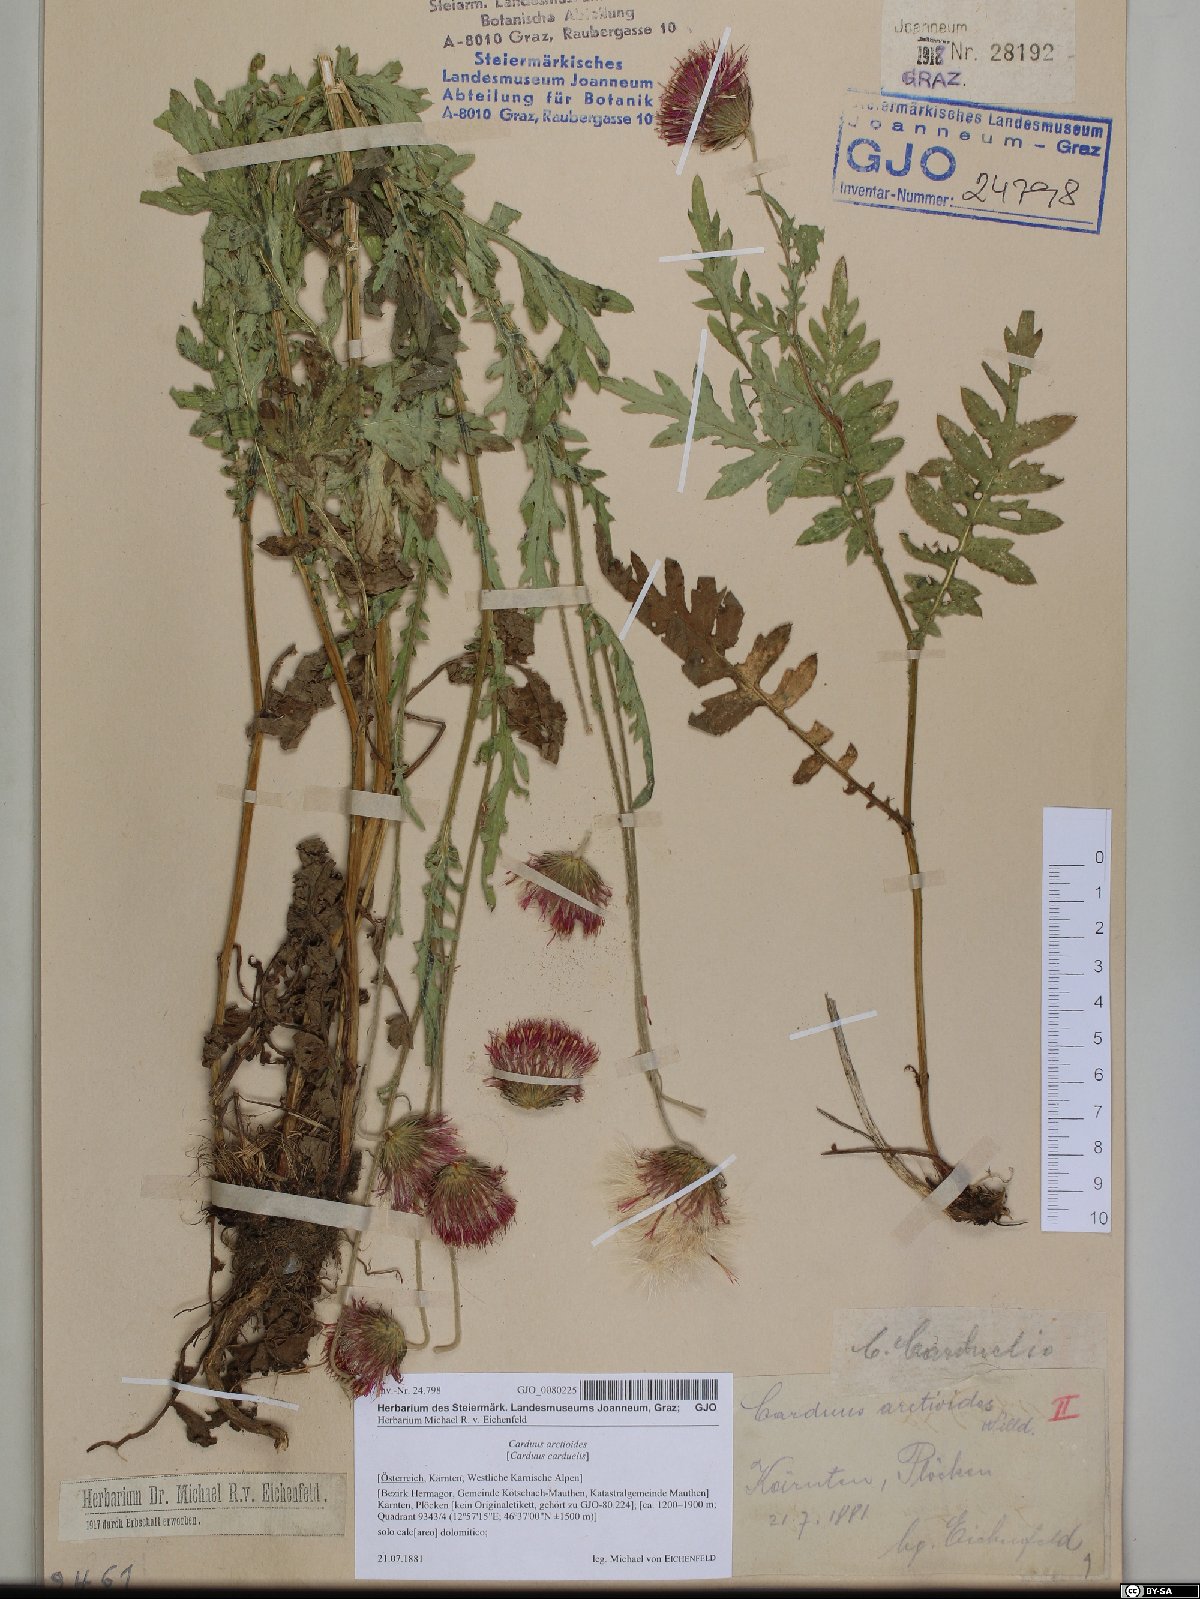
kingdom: Plantae
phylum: Tracheophyta
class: Magnoliopsida
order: Asterales
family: Asteraceae
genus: Carduus
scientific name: Carduus carduelis
